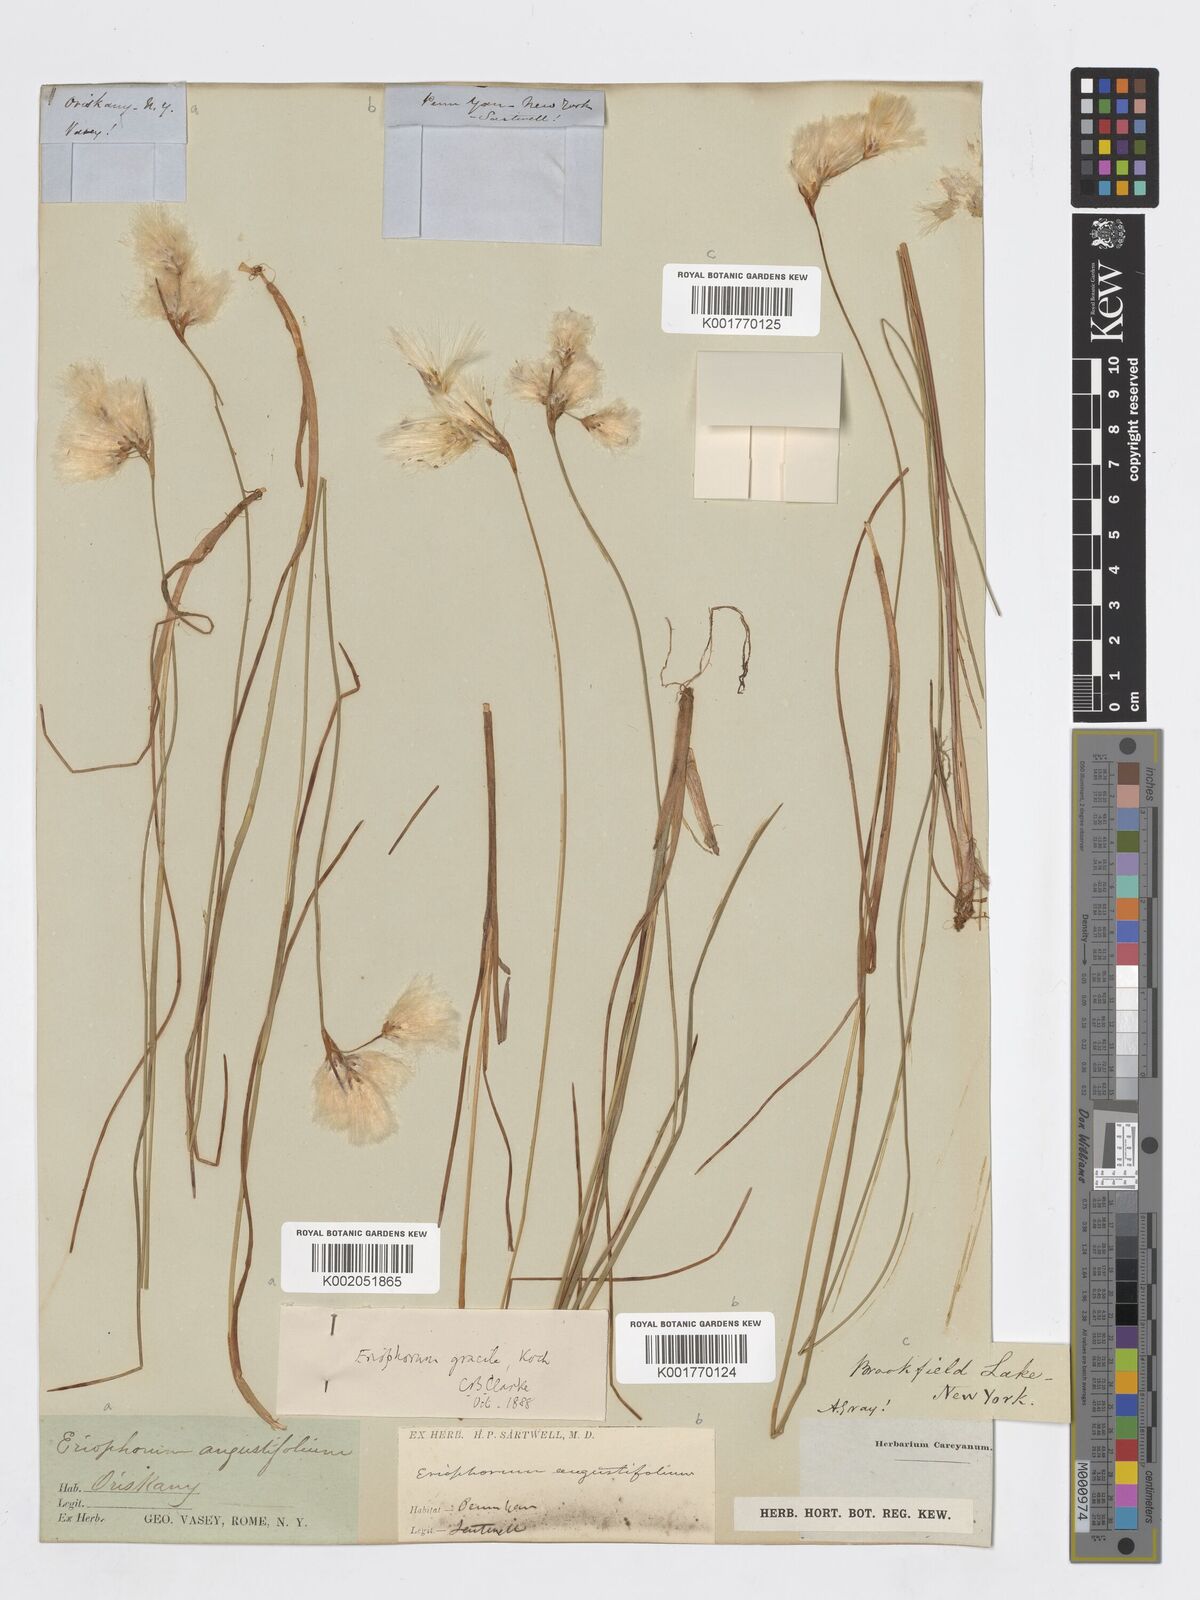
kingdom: Plantae
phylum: Tracheophyta
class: Liliopsida
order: Poales
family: Cyperaceae
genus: Eriophorum
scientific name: Eriophorum gracile
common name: Slender cottongrass
